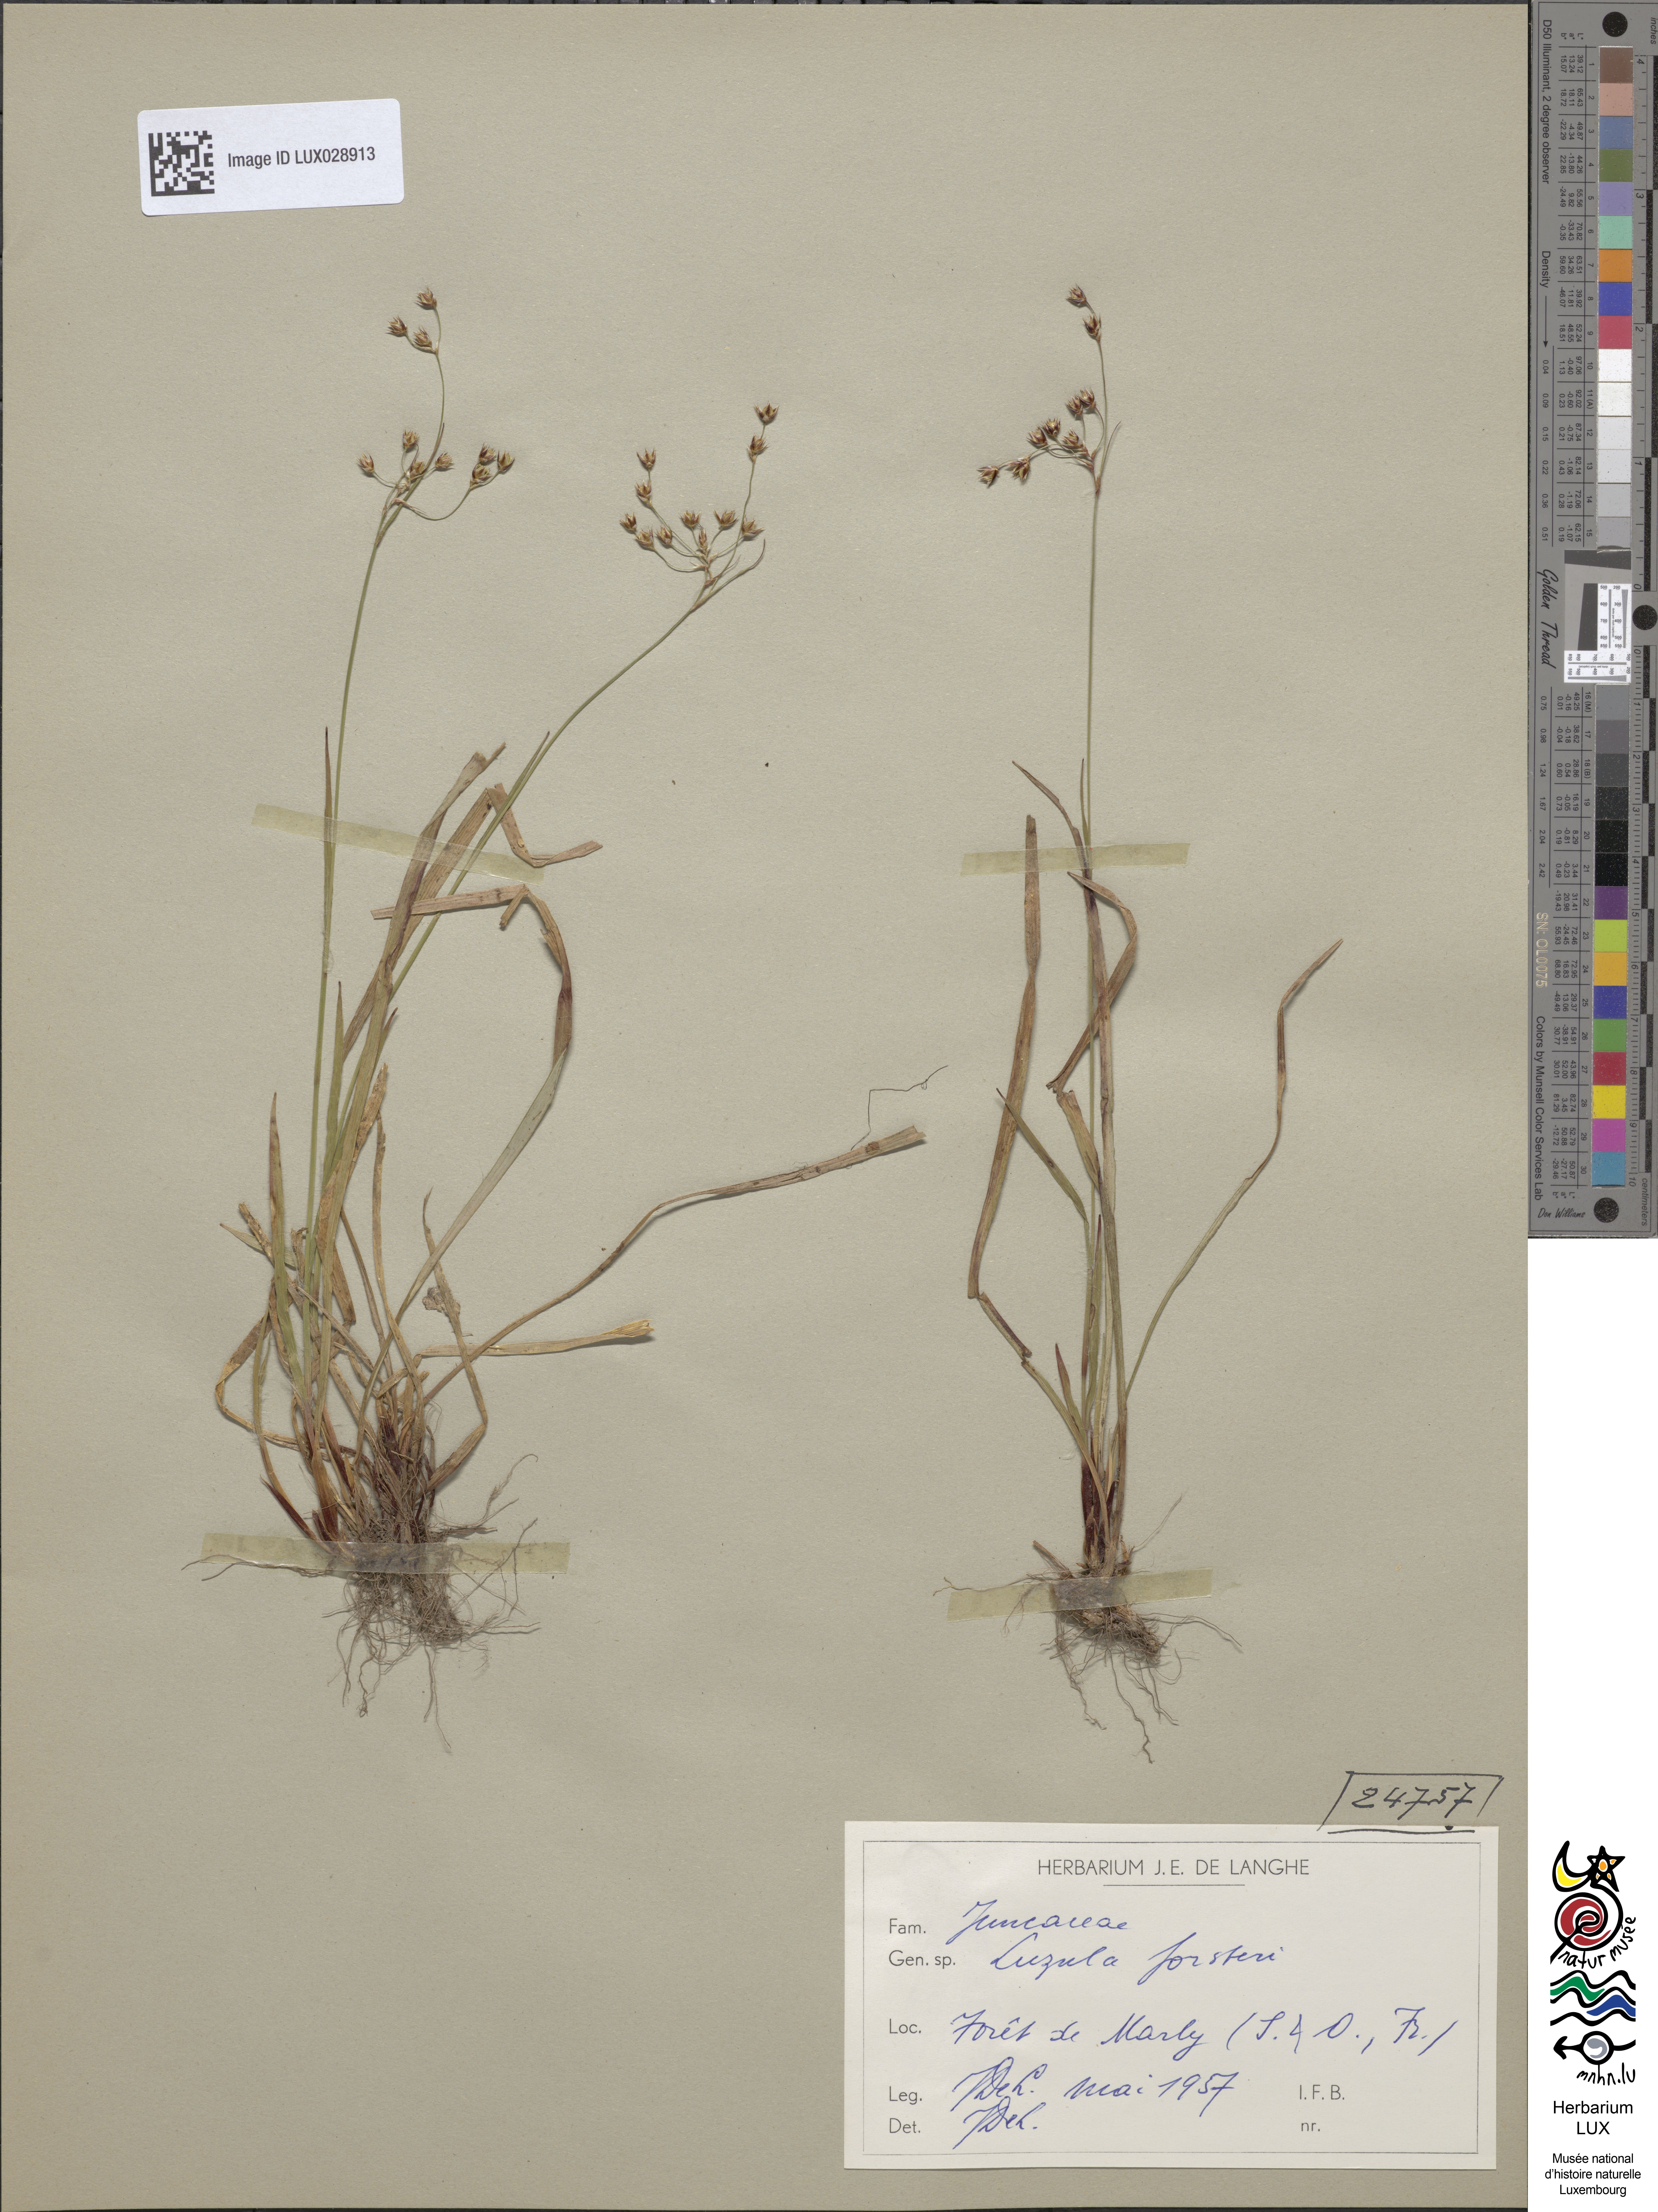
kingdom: Plantae
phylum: Tracheophyta
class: Liliopsida
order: Poales
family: Juncaceae
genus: Luzula
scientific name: Luzula forsteri
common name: Southern wood-rush
